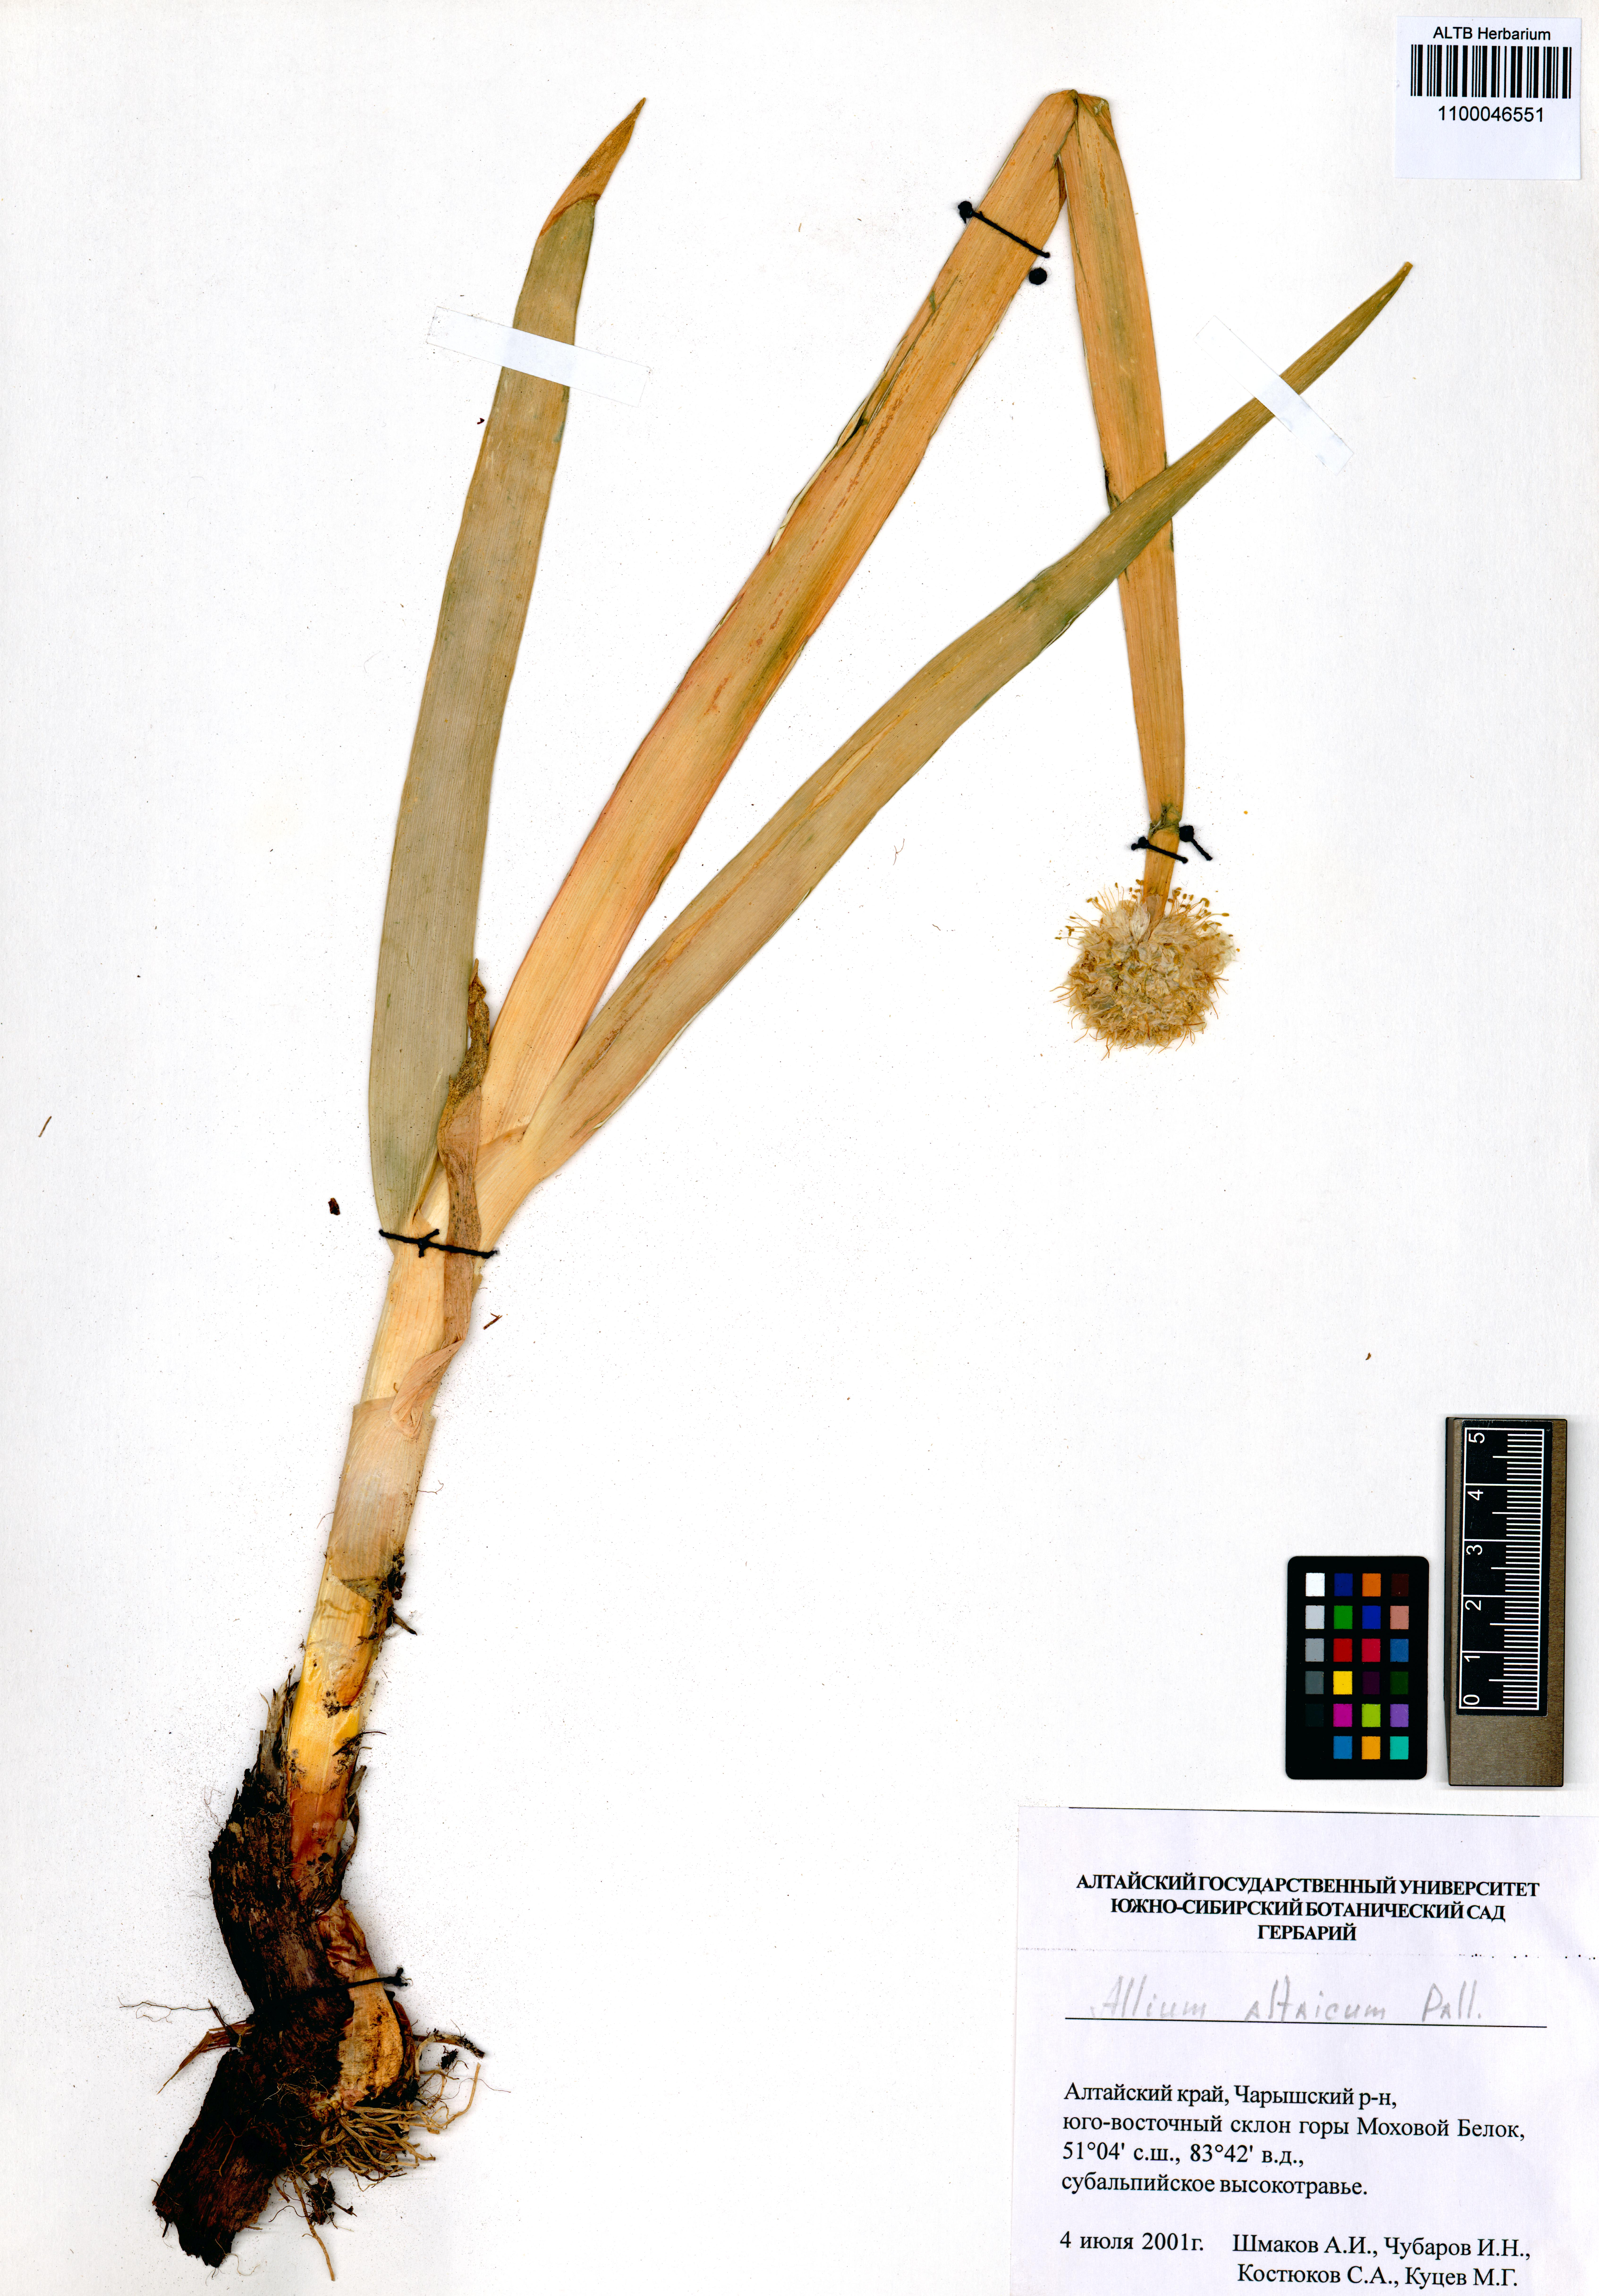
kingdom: Plantae
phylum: Tracheophyta
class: Liliopsida
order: Asparagales
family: Amaryllidaceae
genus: Allium
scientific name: Allium altaicum
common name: Altai onion
